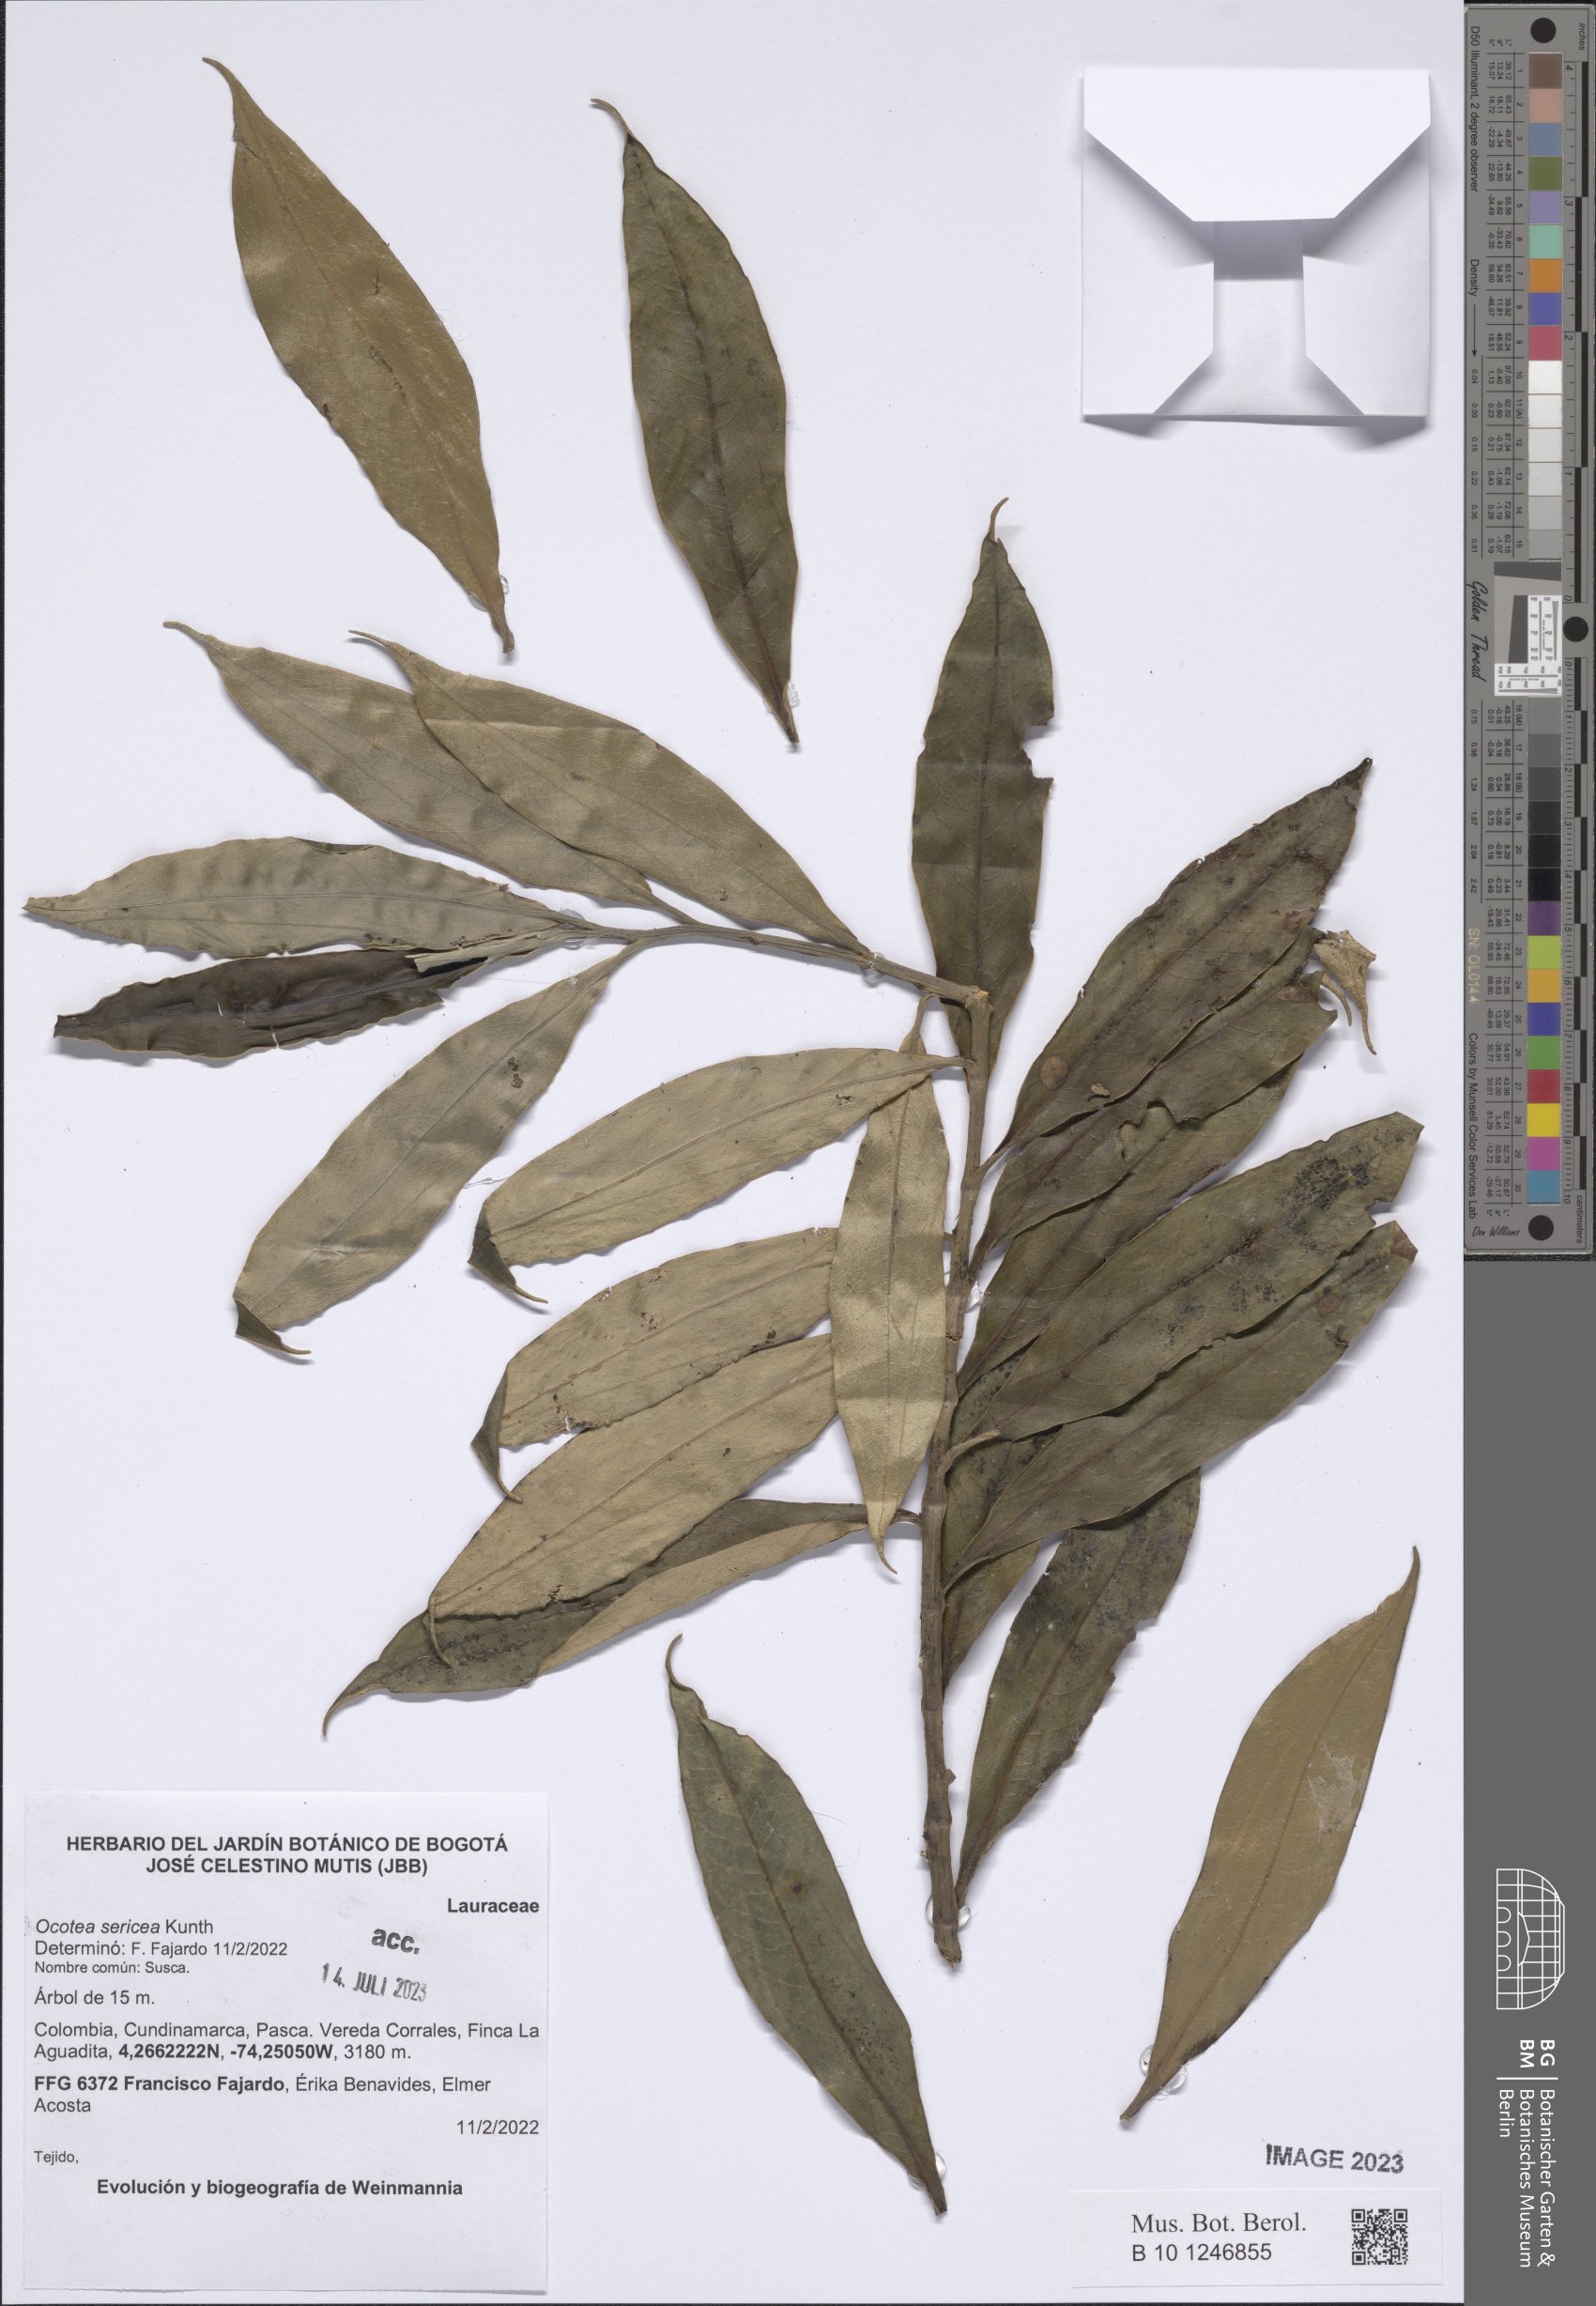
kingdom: Plantae
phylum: Tracheophyta
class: Magnoliopsida
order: Laurales
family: Lauraceae
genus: Andea
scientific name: Andea sericea
